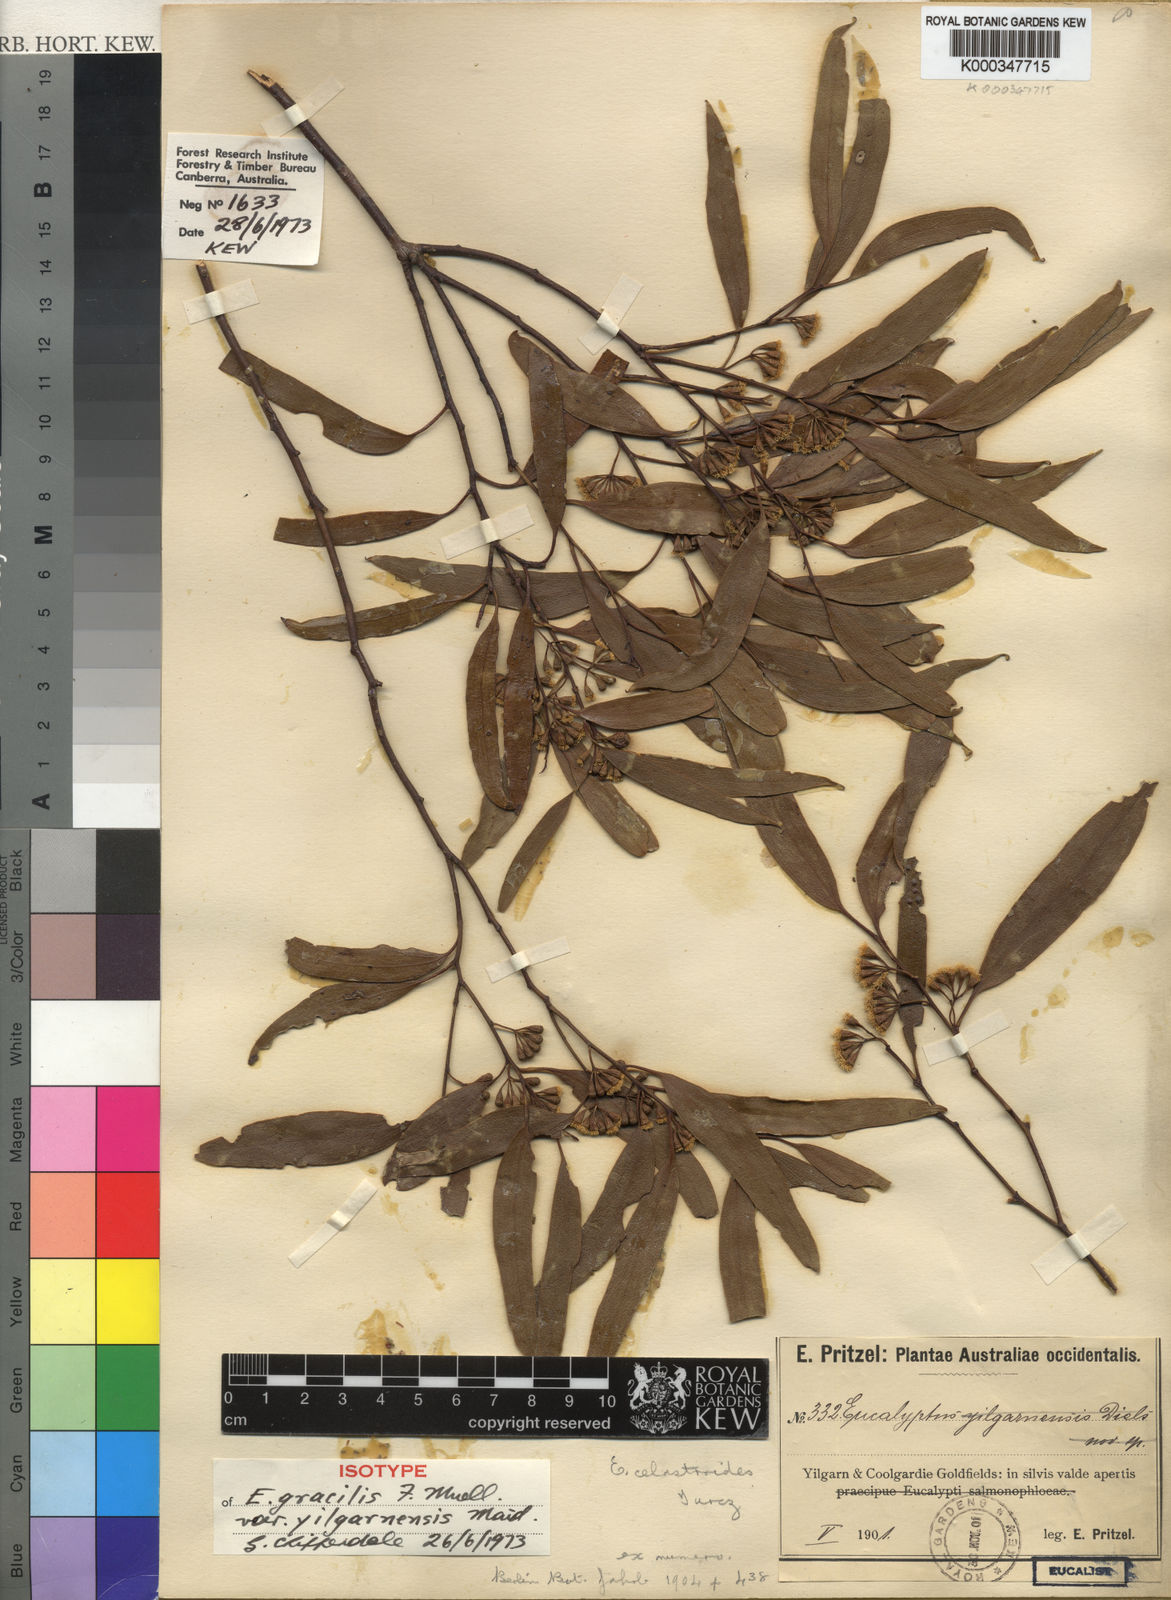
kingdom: Plantae
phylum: Tracheophyta
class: Magnoliopsida
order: Myrtales
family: Myrtaceae
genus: Eucalyptus
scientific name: Eucalyptus yilgarnensis
